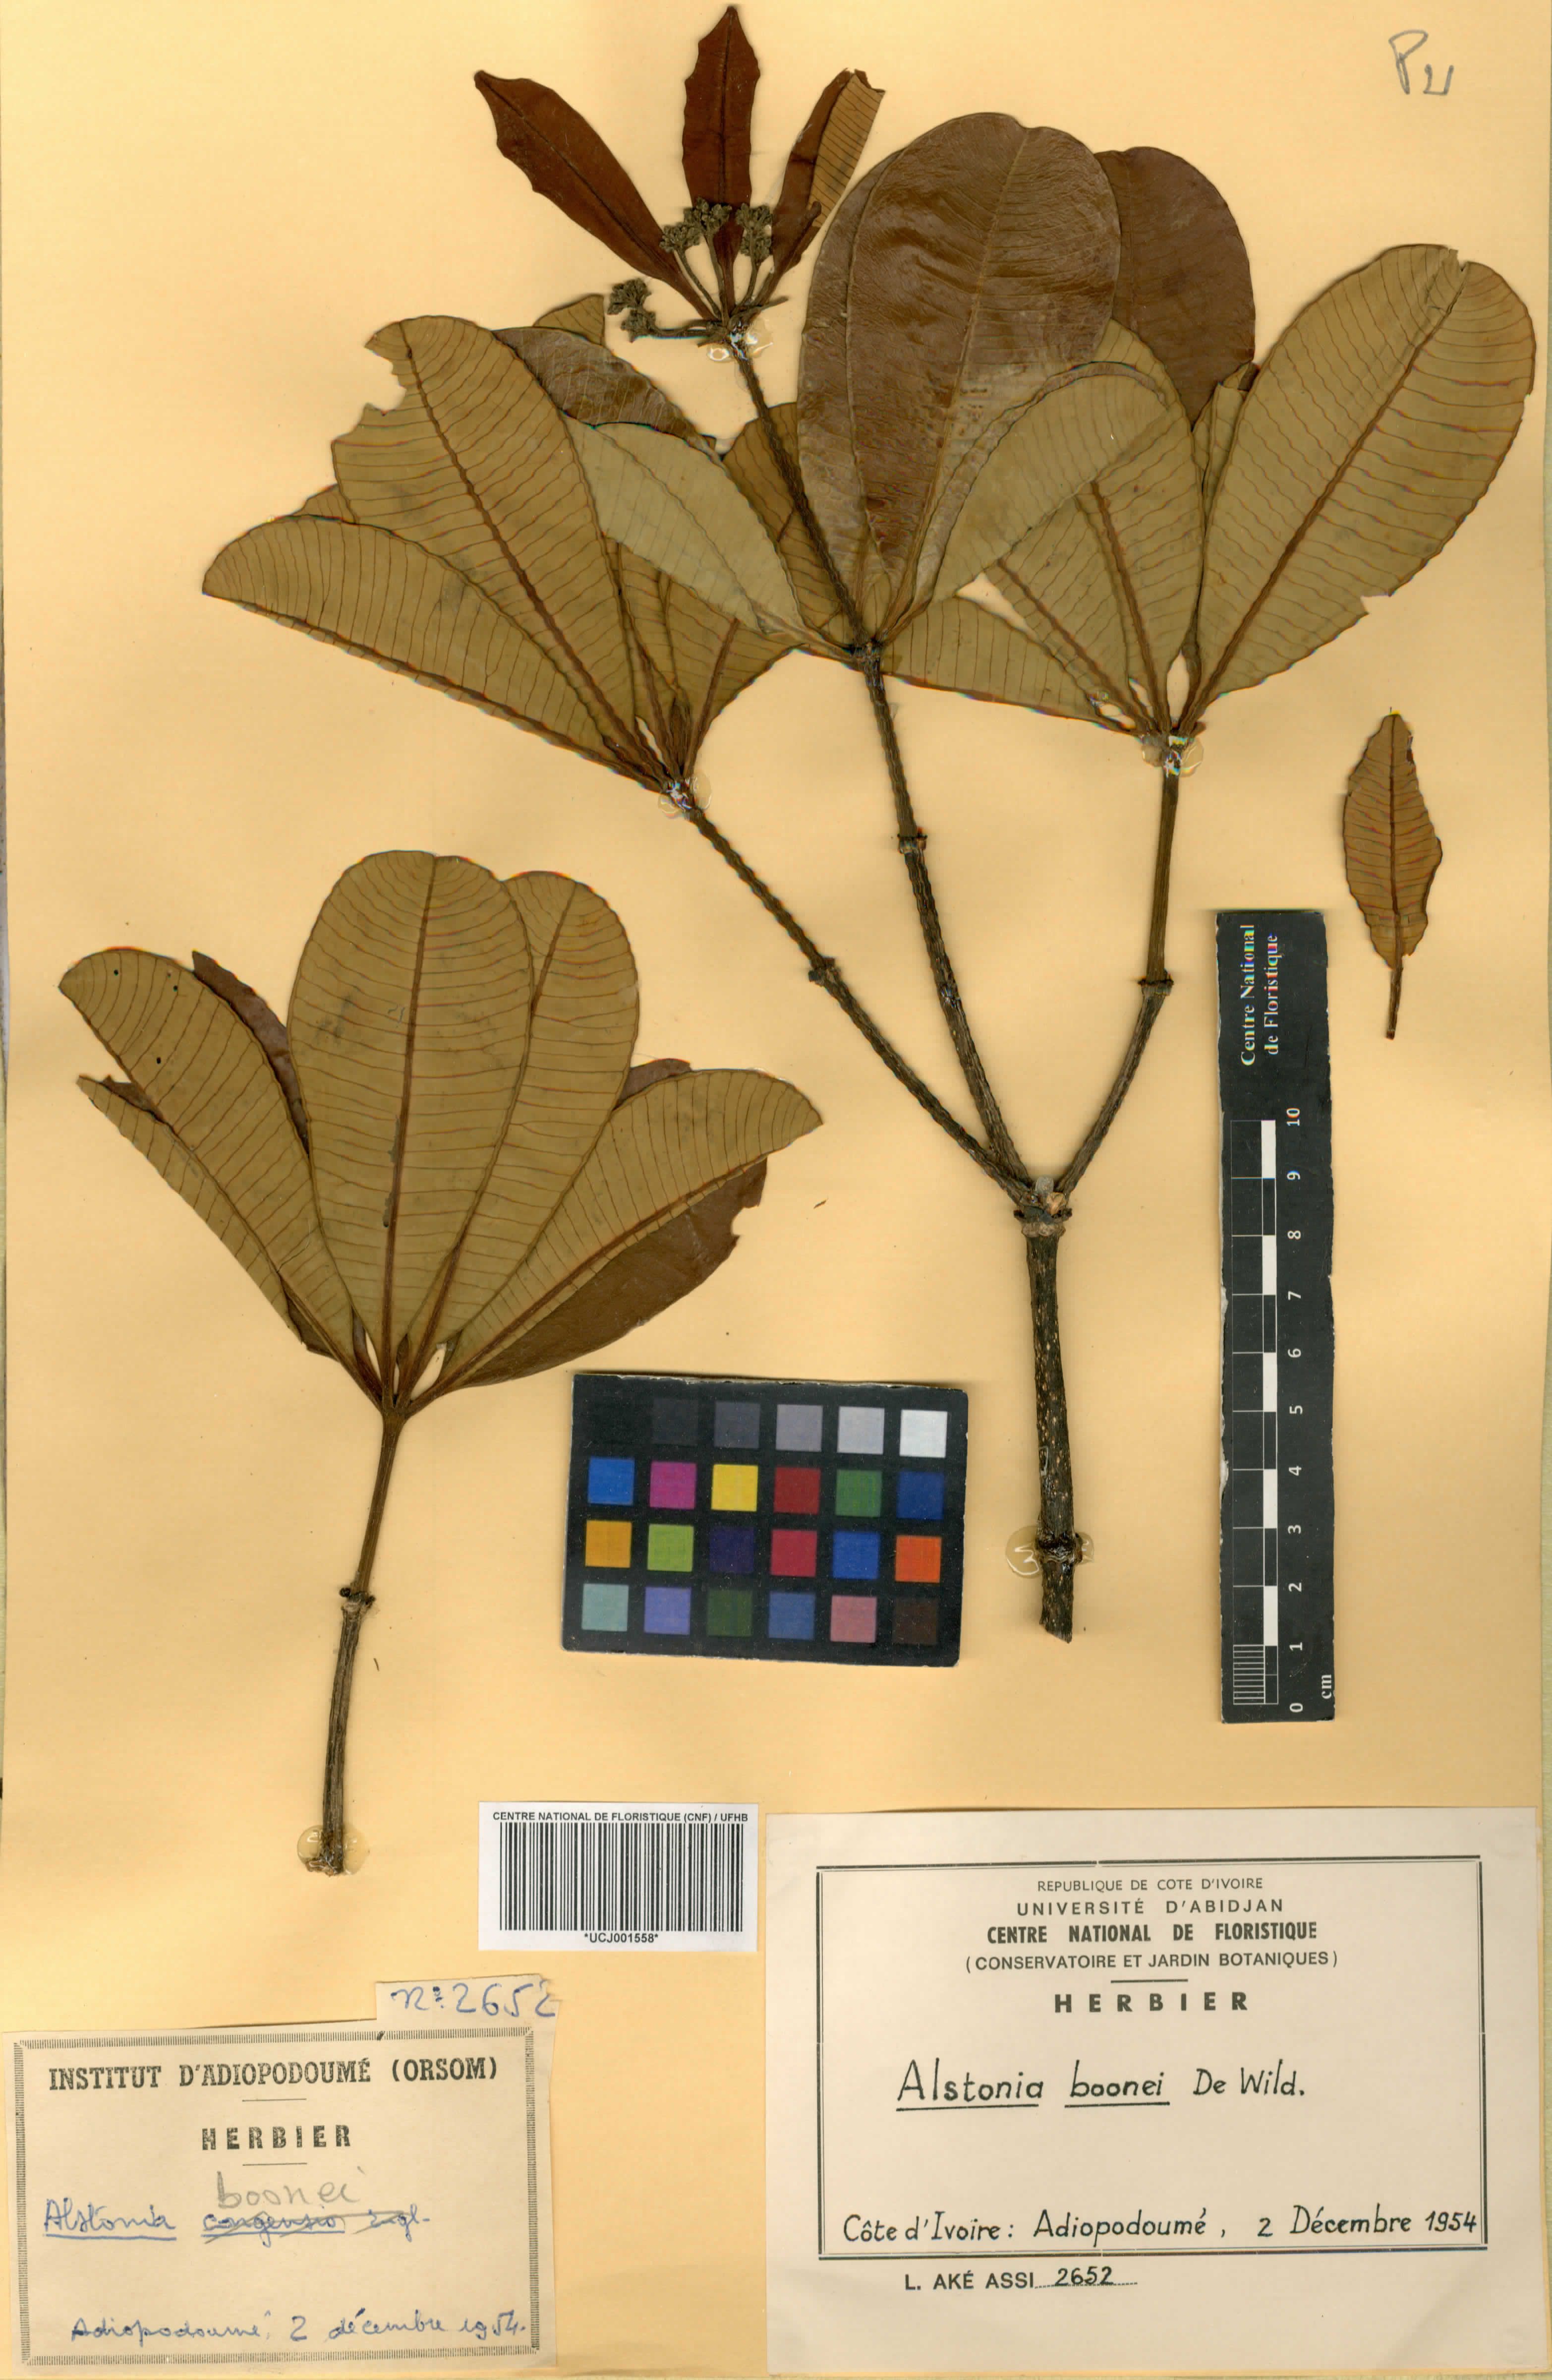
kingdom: Plantae
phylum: Tracheophyta
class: Magnoliopsida
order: Gentianales
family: Apocynaceae
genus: Alstonia
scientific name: Alstonia boonei
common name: Alstonia
